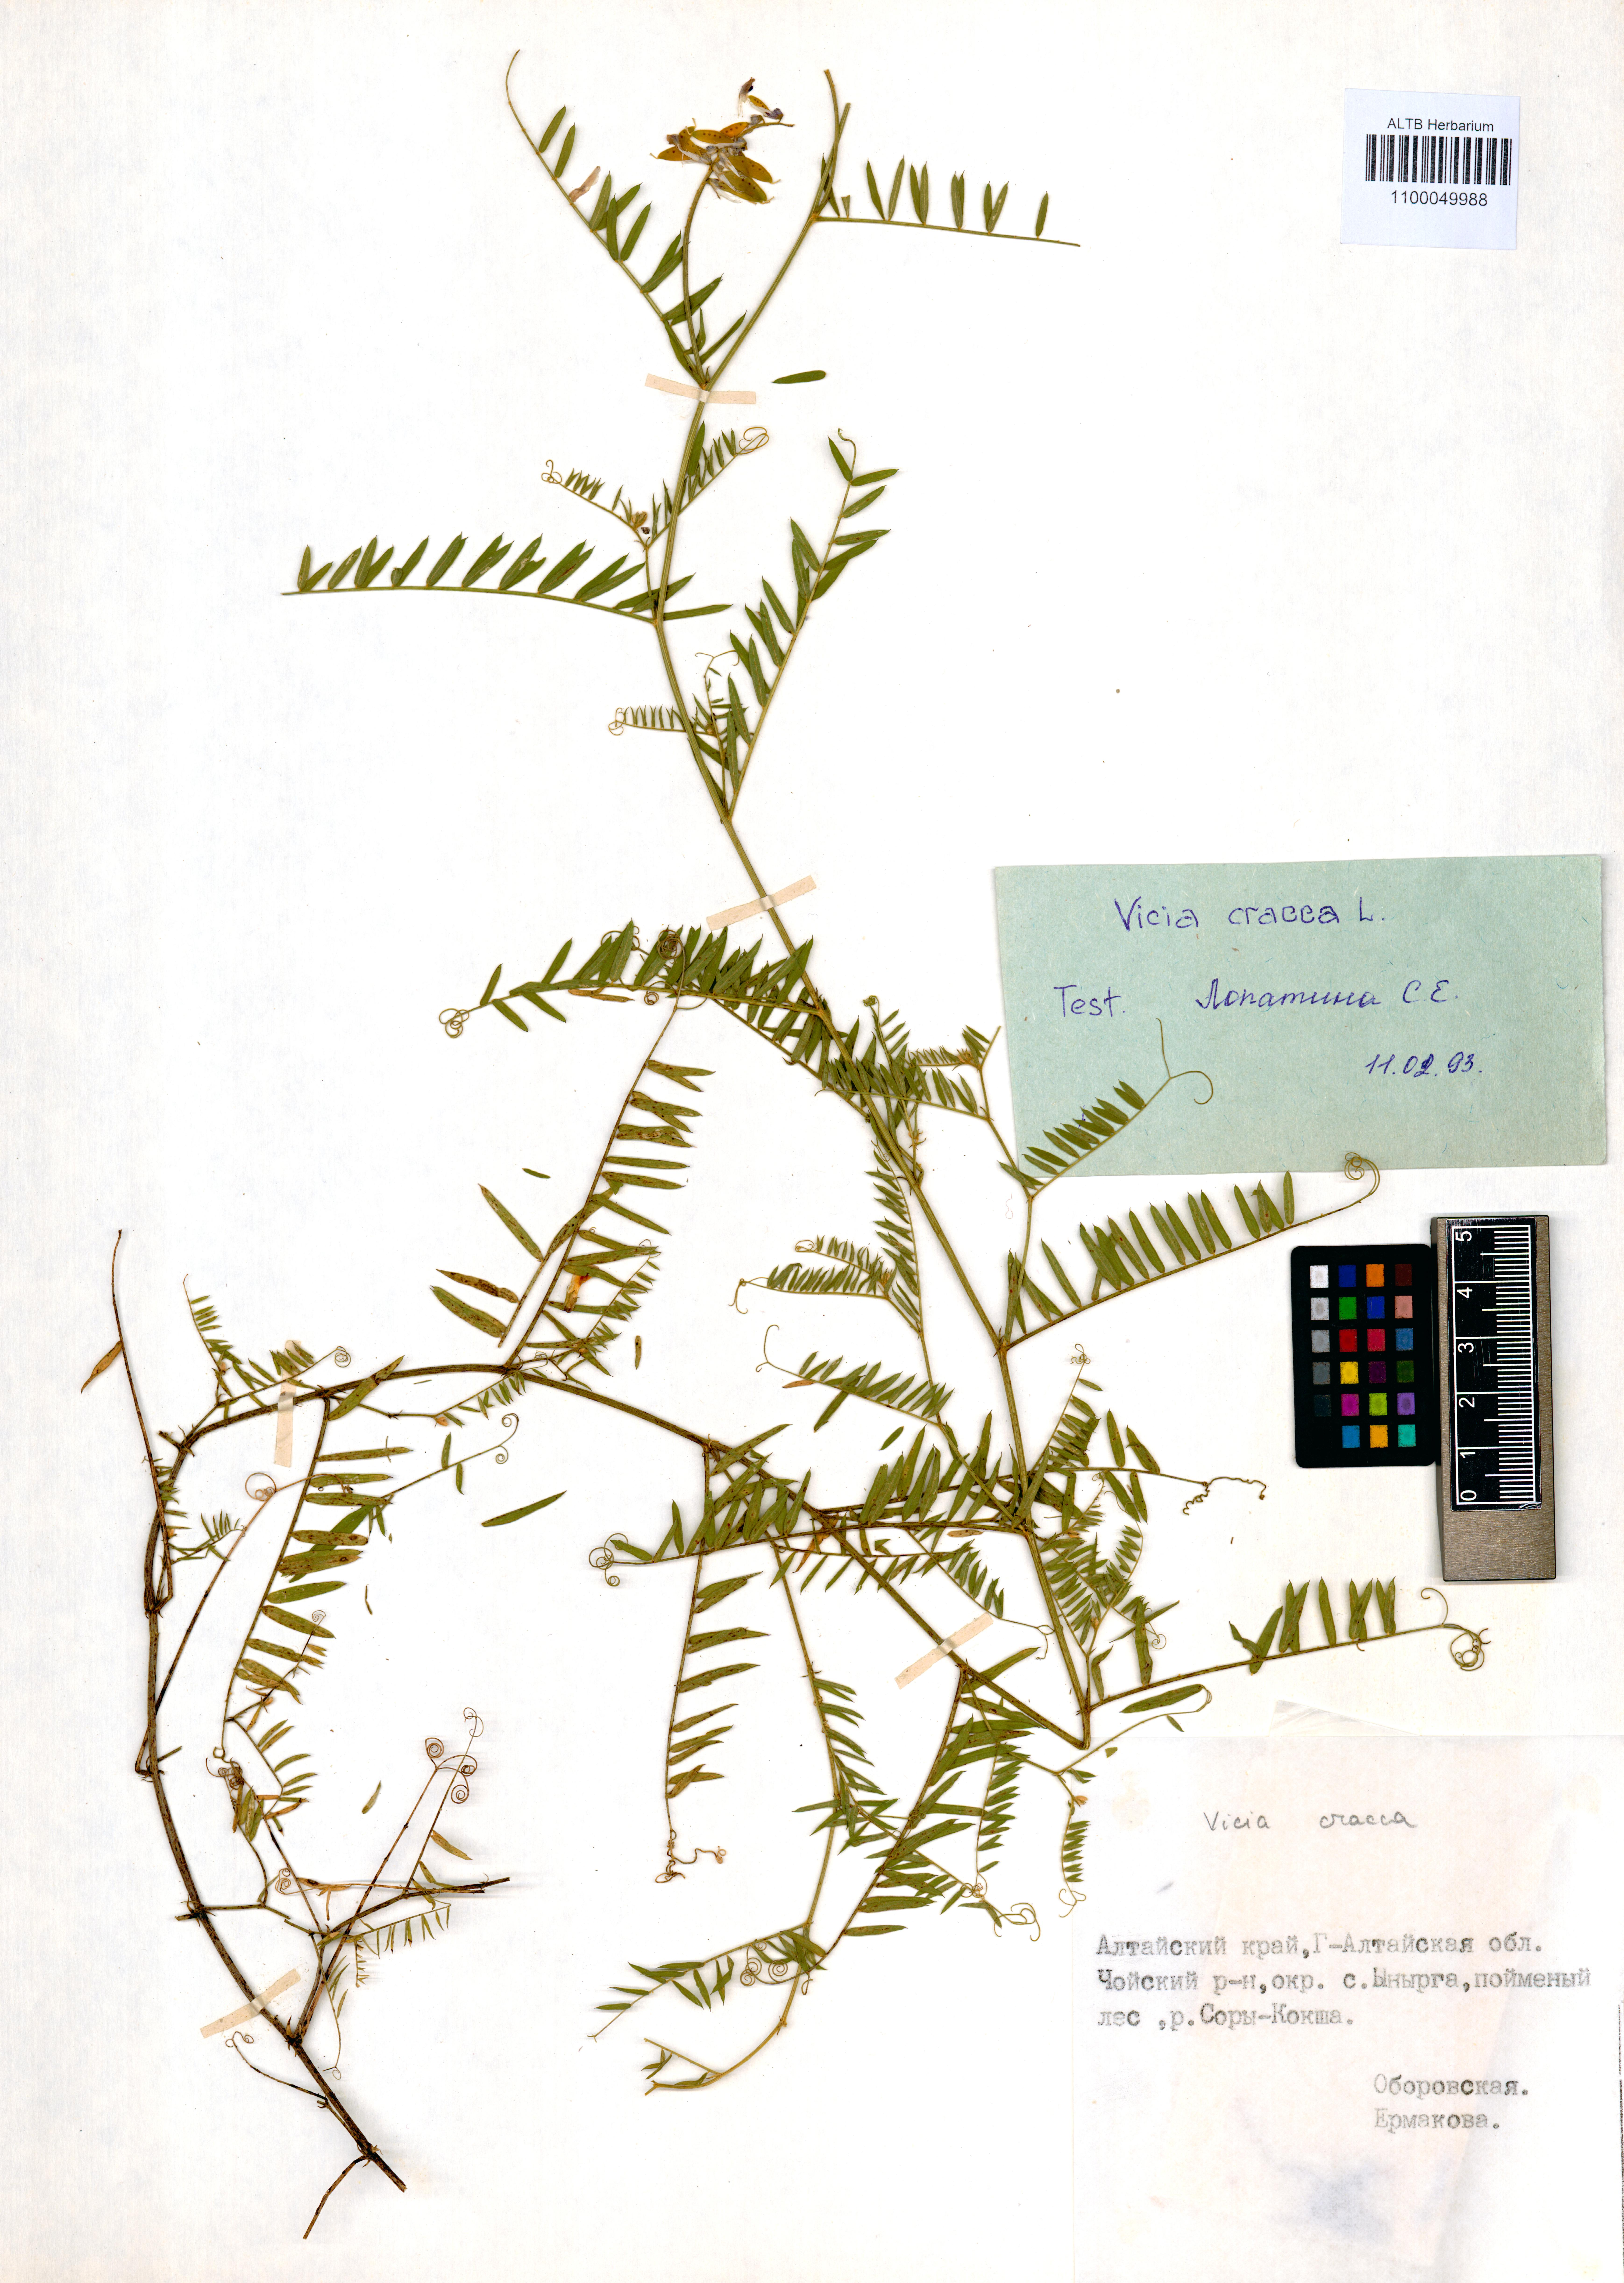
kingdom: Plantae
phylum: Tracheophyta
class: Magnoliopsida
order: Fabales
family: Fabaceae
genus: Vicia
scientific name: Vicia cracca
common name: Bird vetch
